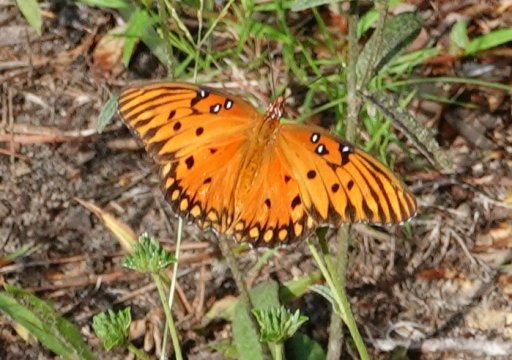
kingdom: Animalia
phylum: Arthropoda
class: Insecta
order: Lepidoptera
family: Nymphalidae
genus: Dione
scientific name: Dione vanillae
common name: Gulf Fritillary
